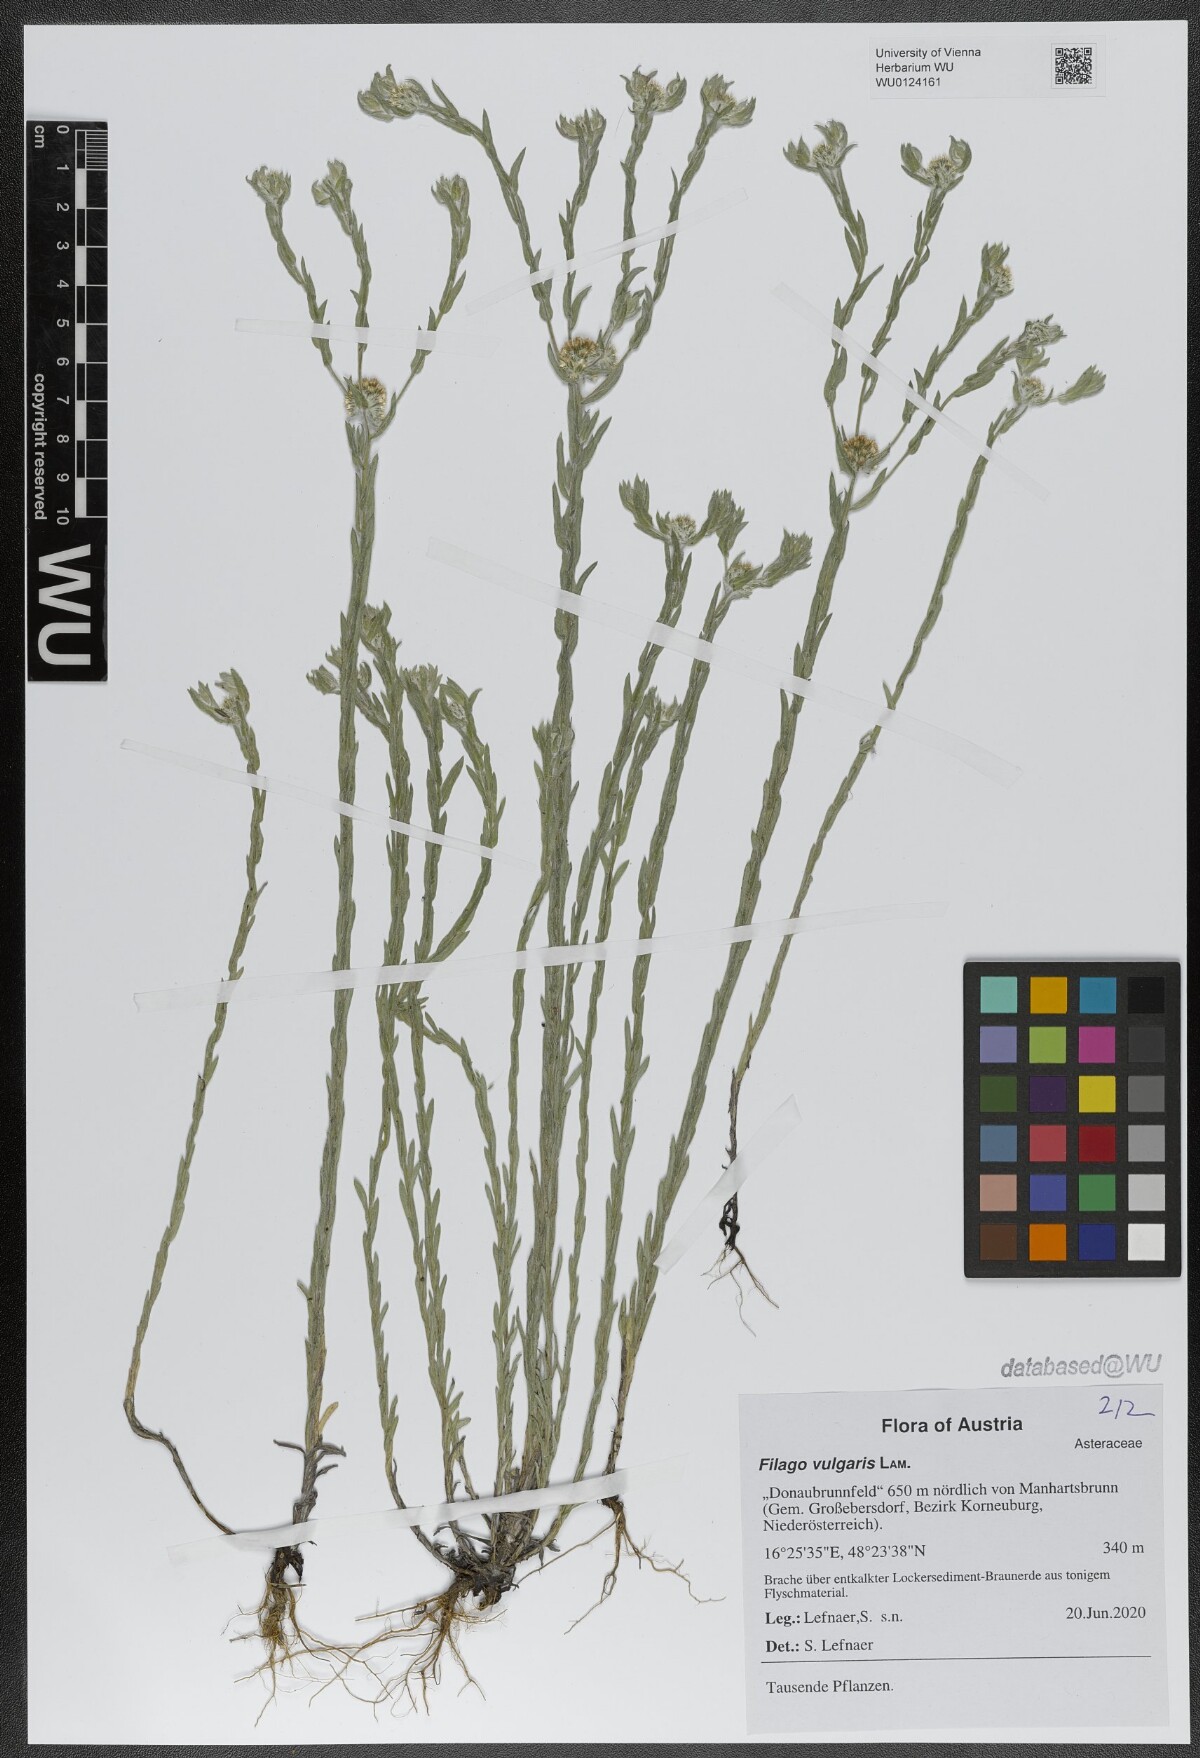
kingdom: Plantae
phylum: Tracheophyta
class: Magnoliopsida
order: Asterales
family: Asteraceae
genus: Filago
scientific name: Filago germanica
